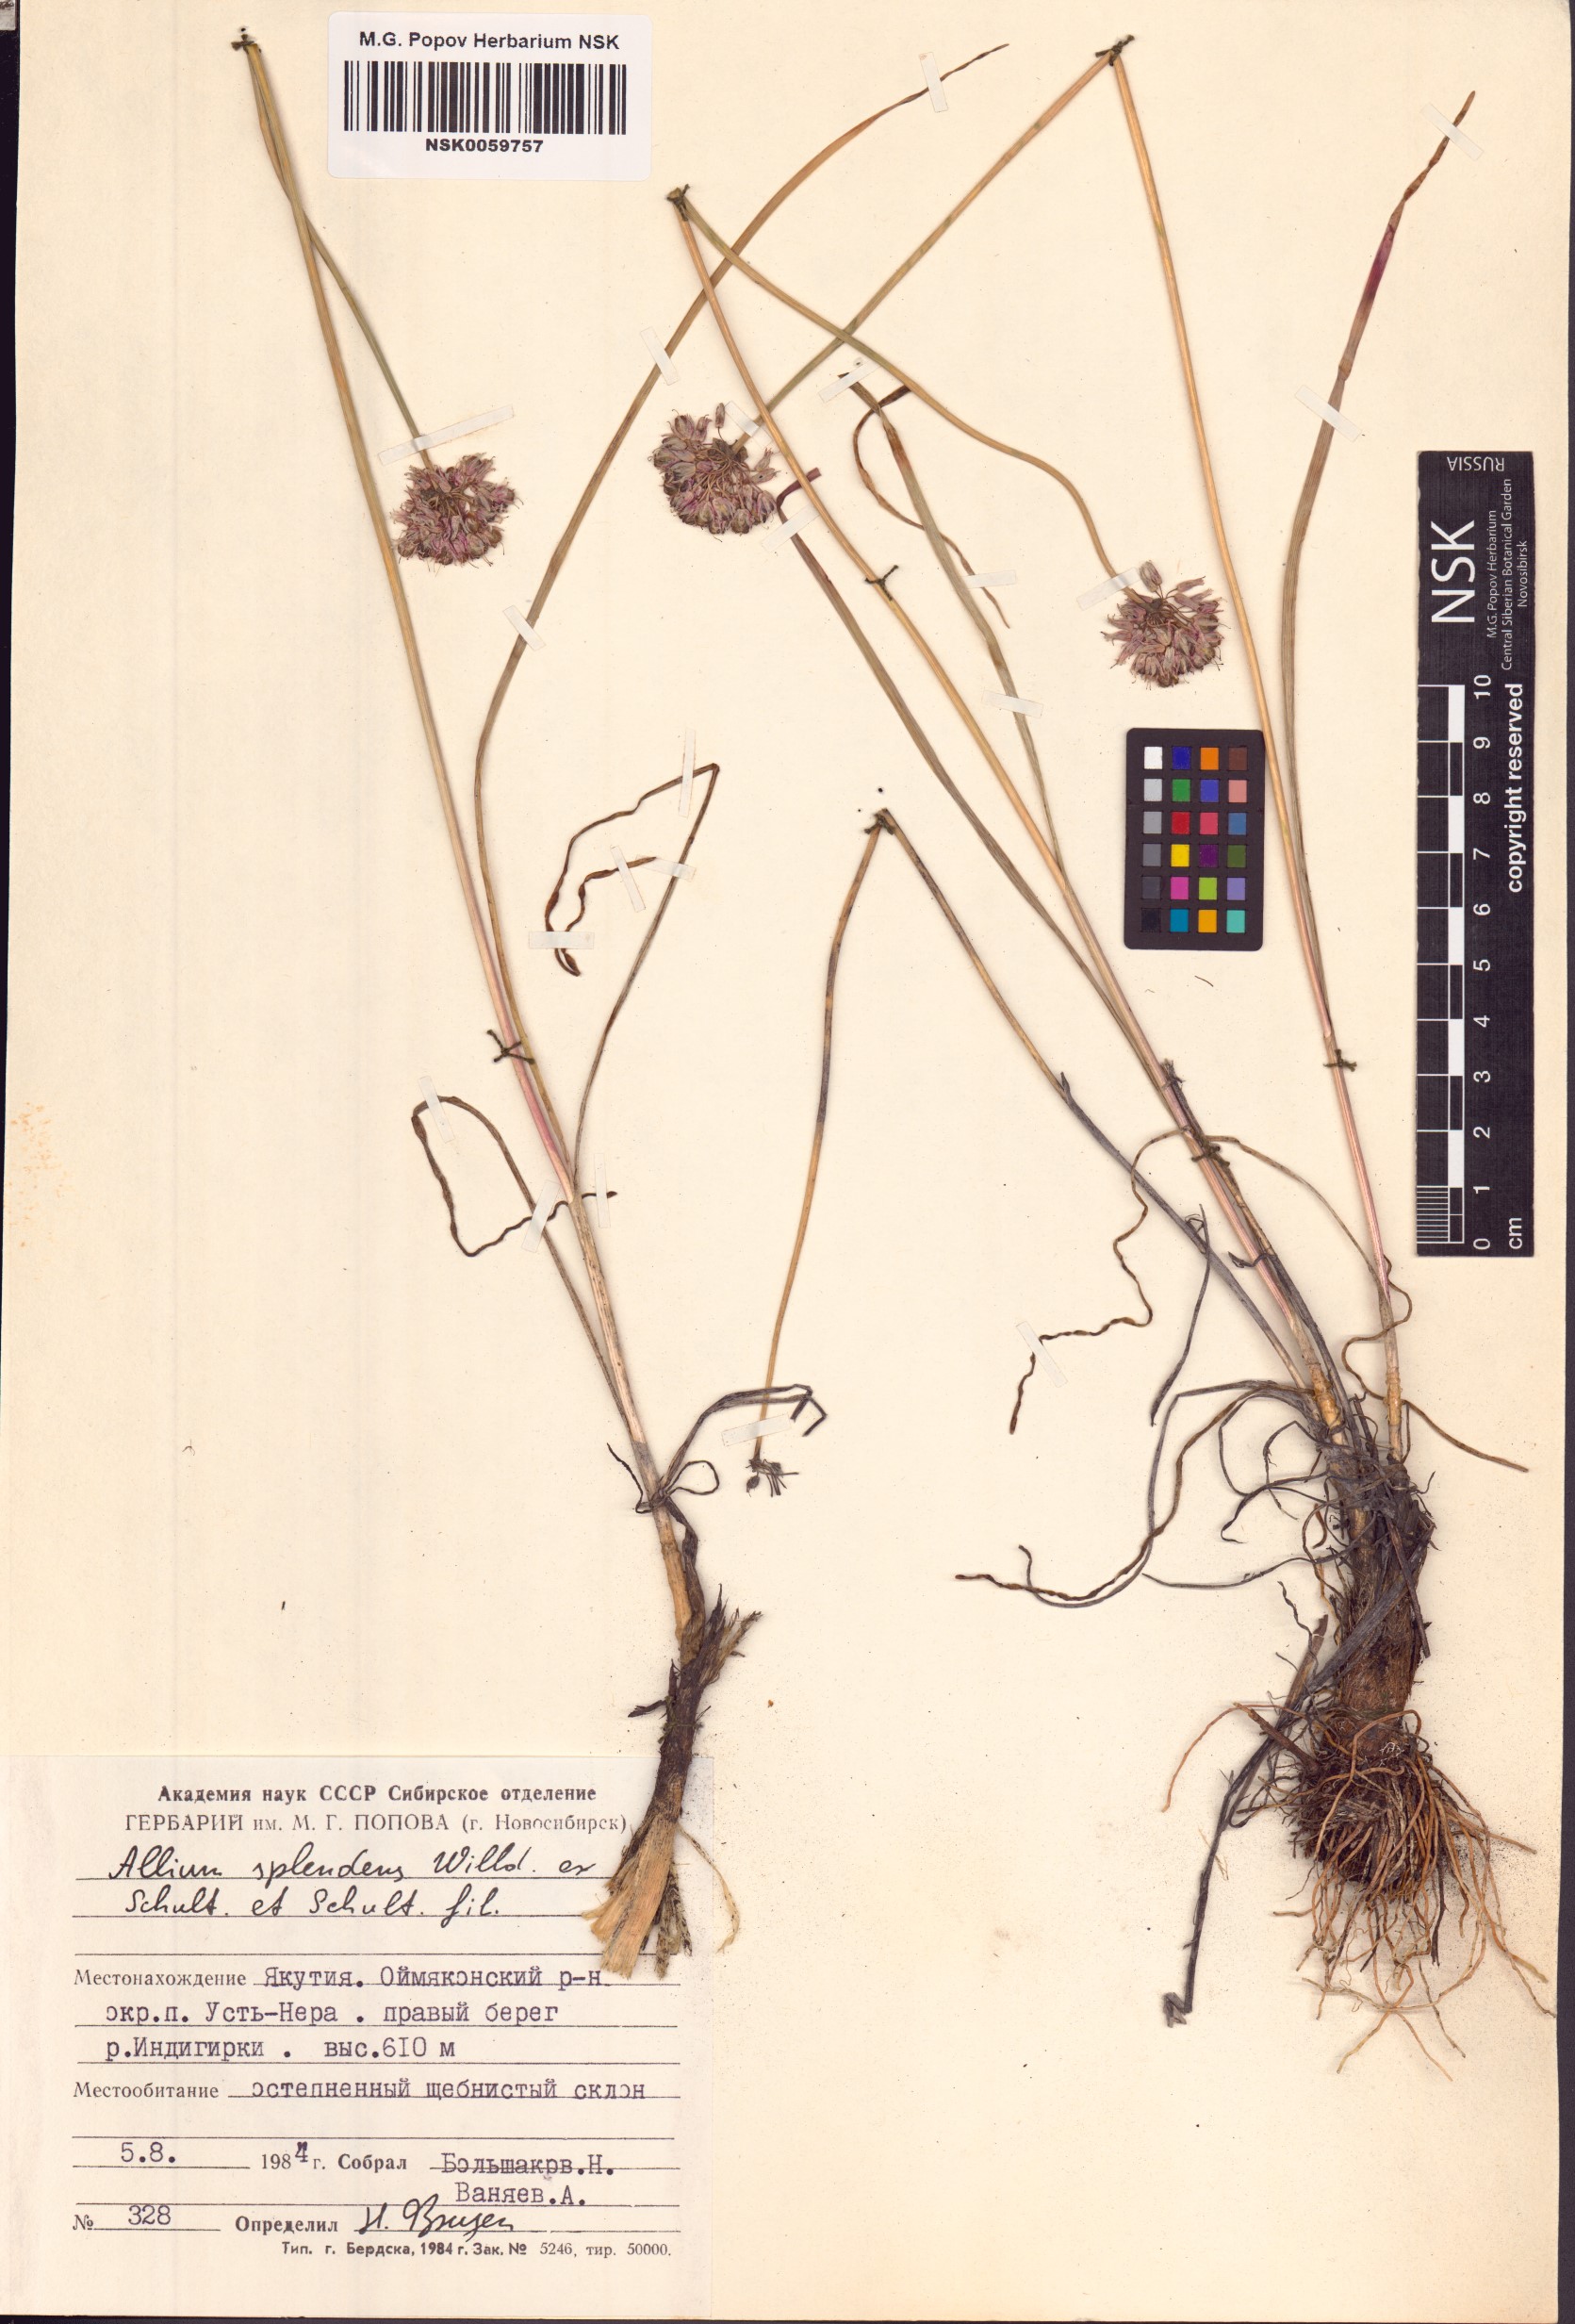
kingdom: Plantae
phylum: Tracheophyta
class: Liliopsida
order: Asparagales
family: Amaryllidaceae
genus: Allium
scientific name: Allium splendens
